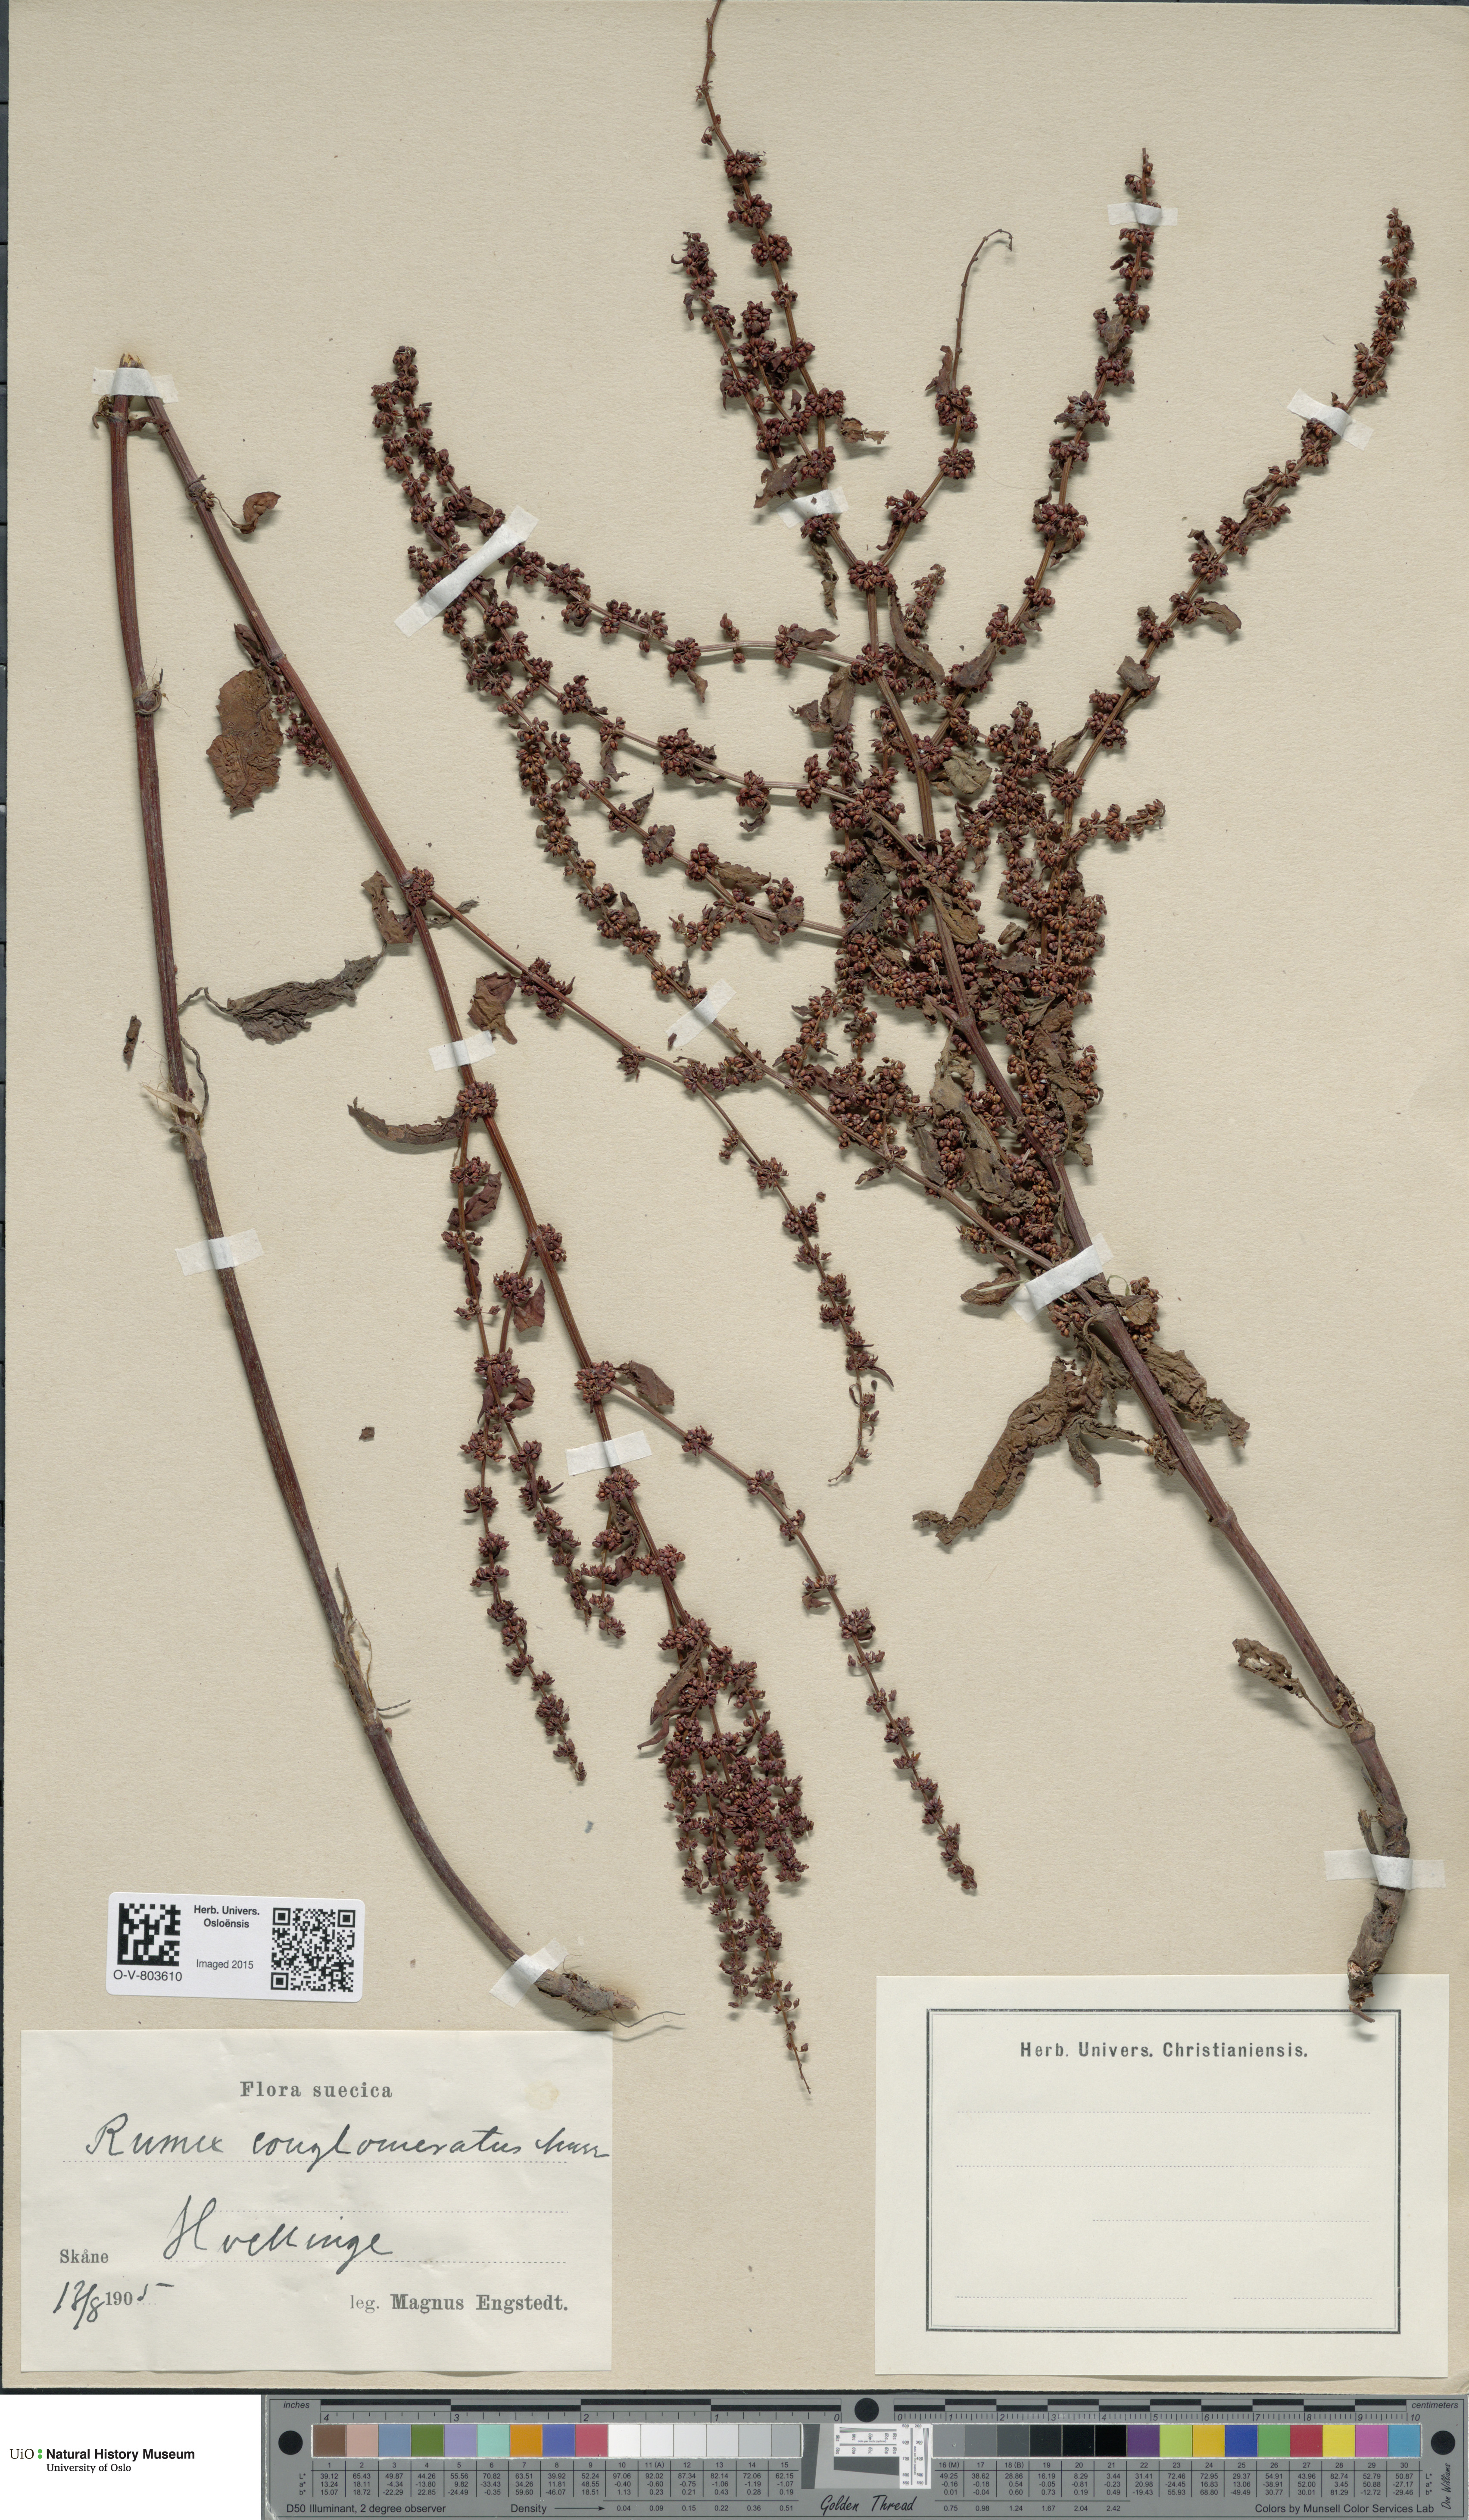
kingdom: Plantae
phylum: Tracheophyta
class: Magnoliopsida
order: Caryophyllales
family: Polygonaceae
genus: Rumex
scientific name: Rumex conglomeratus
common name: Clustered dock
